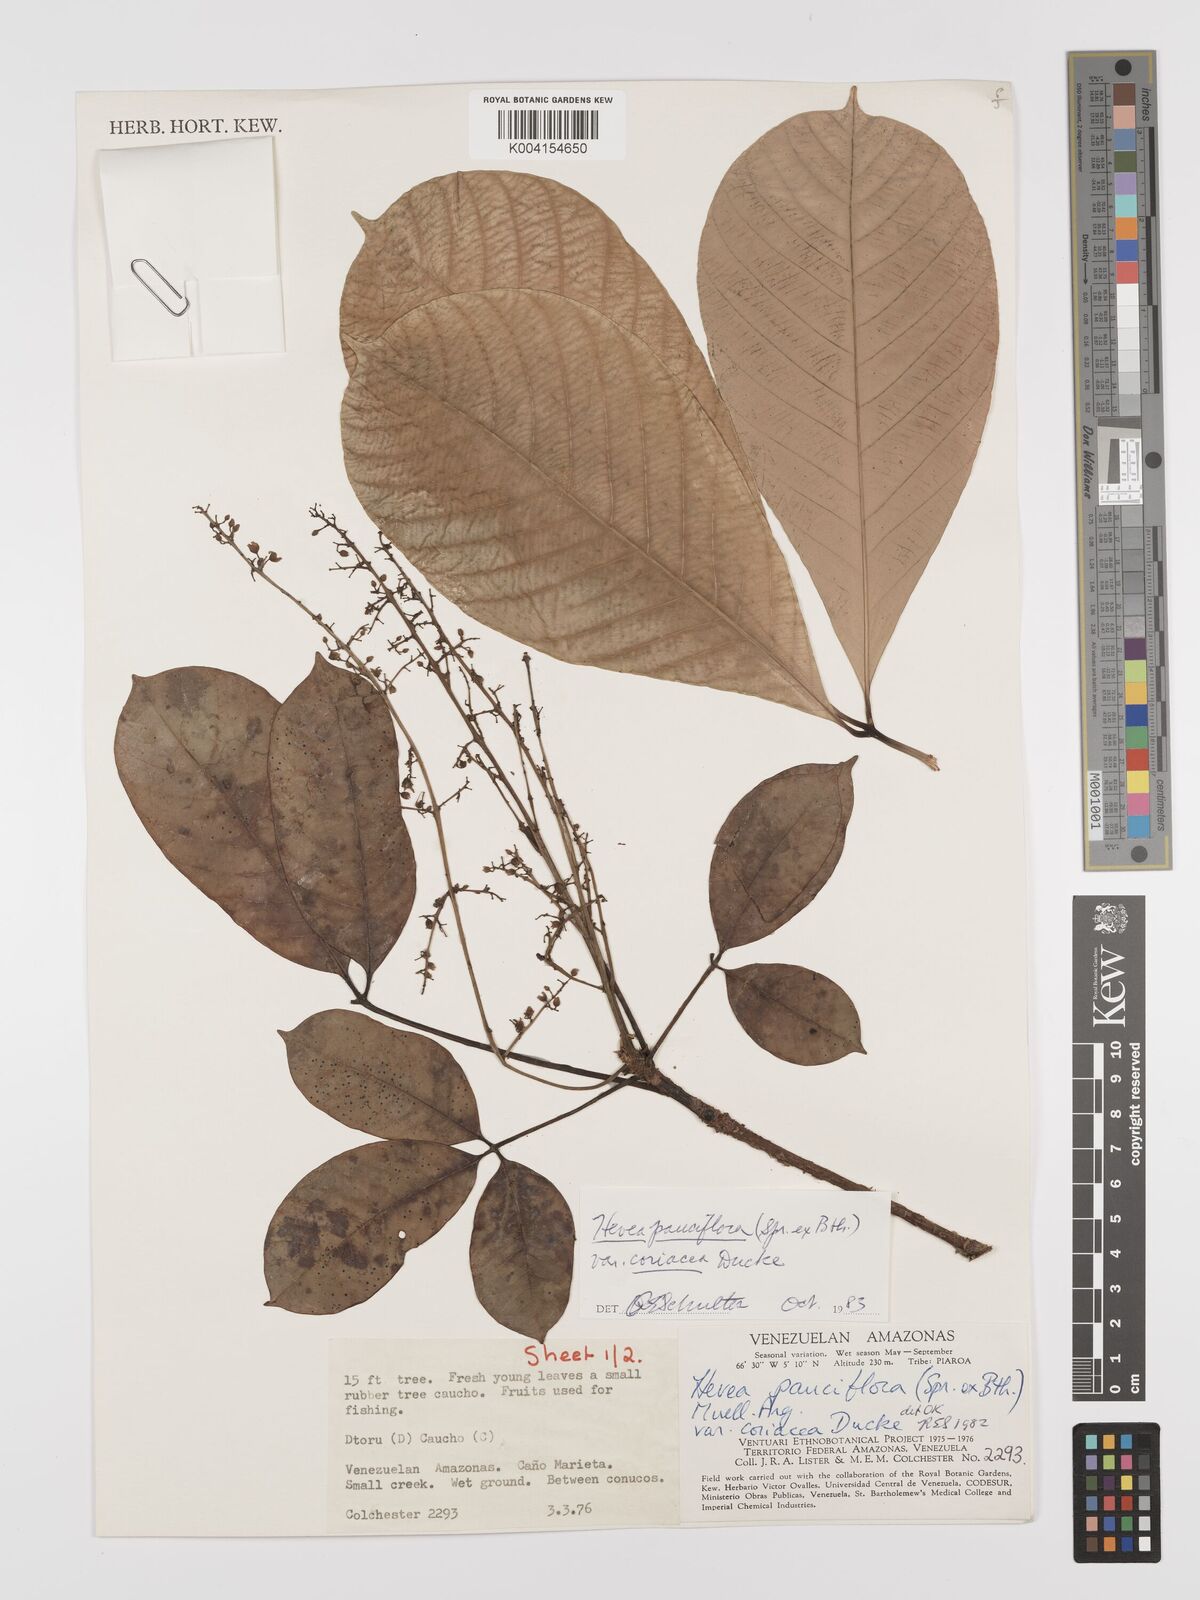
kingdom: Plantae
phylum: Tracheophyta
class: Magnoliopsida
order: Malpighiales
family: Euphorbiaceae
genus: Hevea
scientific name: Hevea pauciflora
